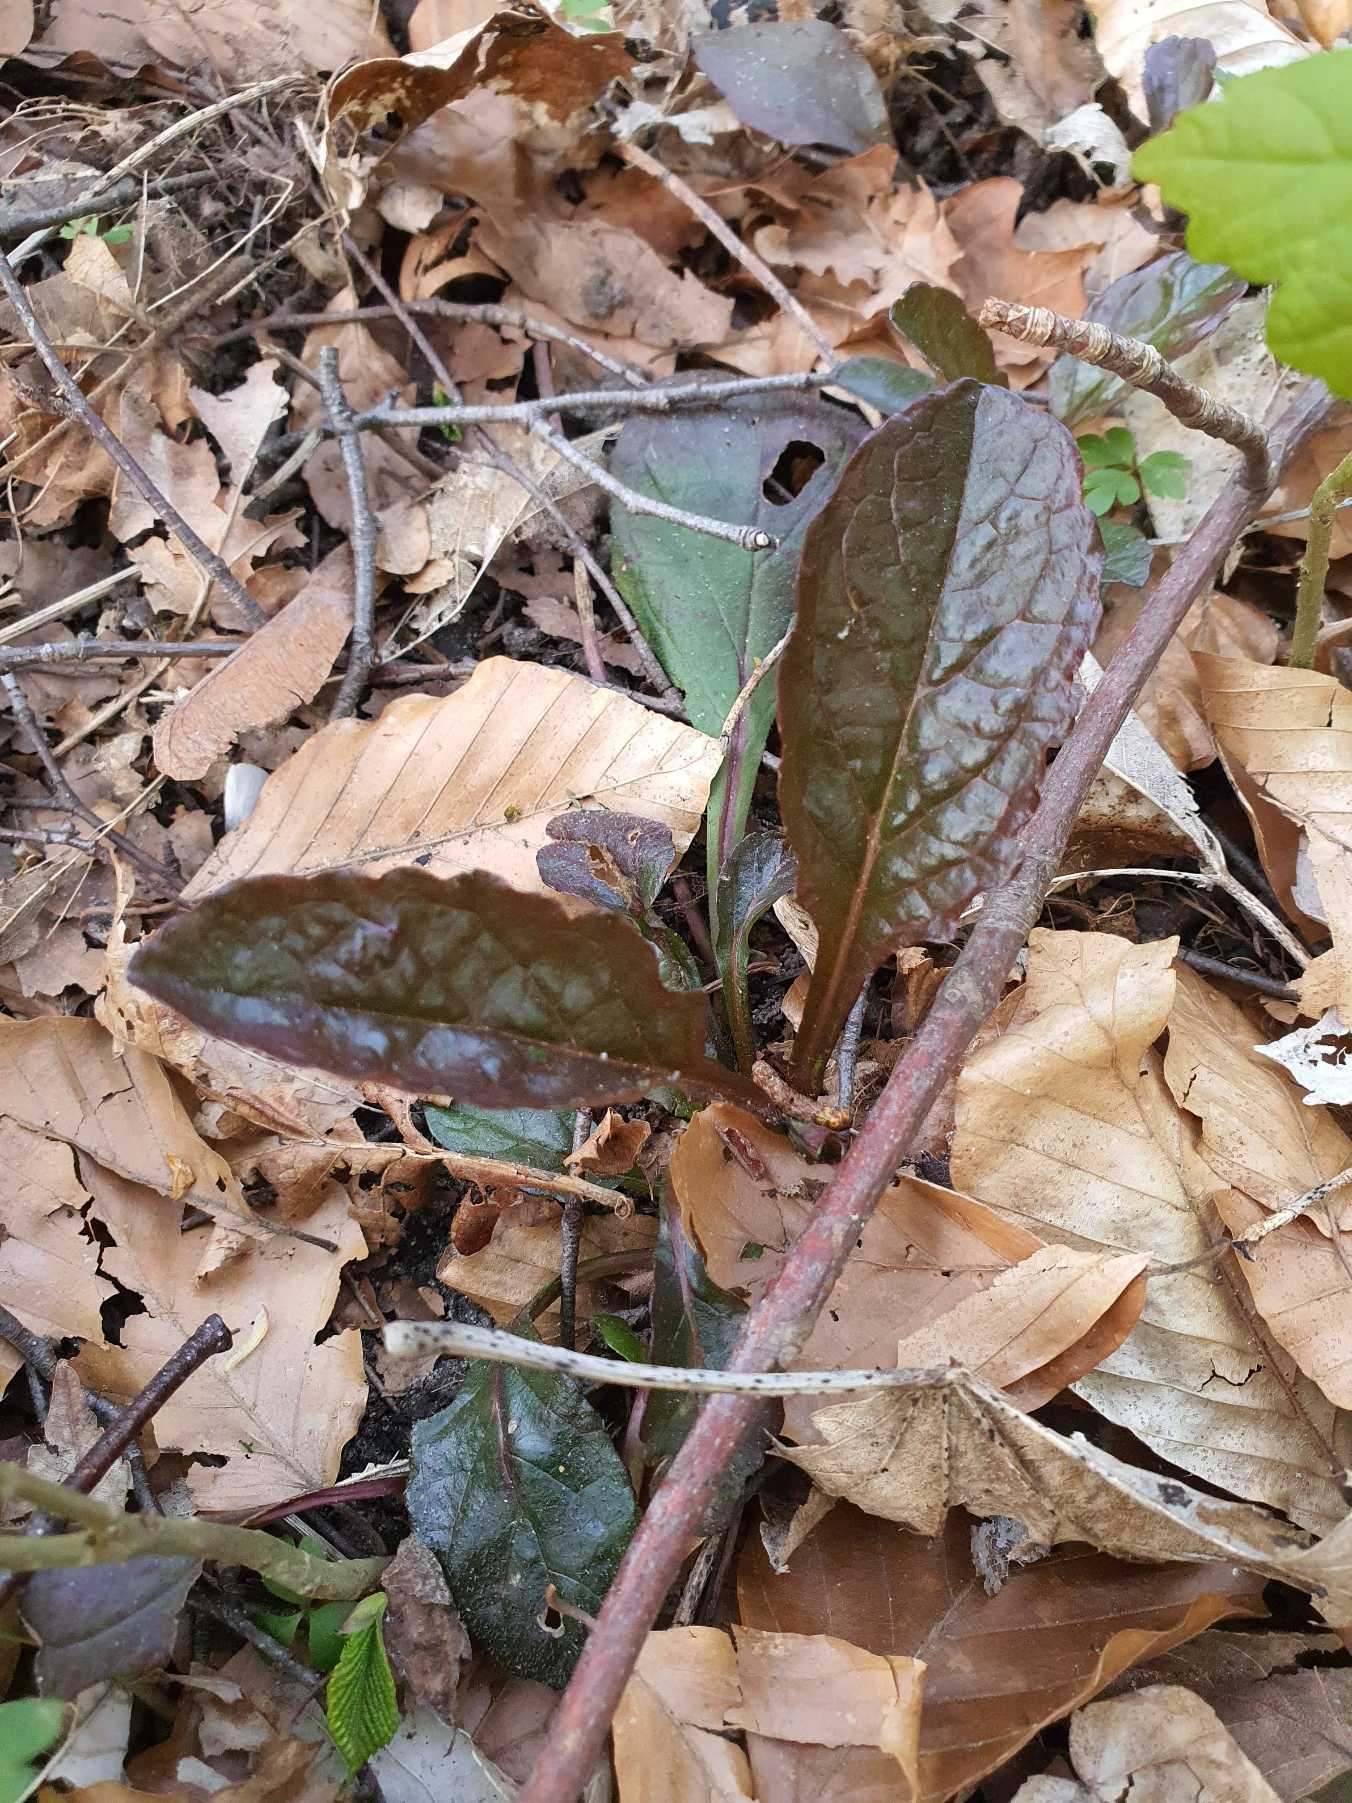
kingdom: Plantae
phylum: Tracheophyta
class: Magnoliopsida
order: Lamiales
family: Lamiaceae
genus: Ajuga
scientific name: Ajuga reptans
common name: Krybende læbeløs
